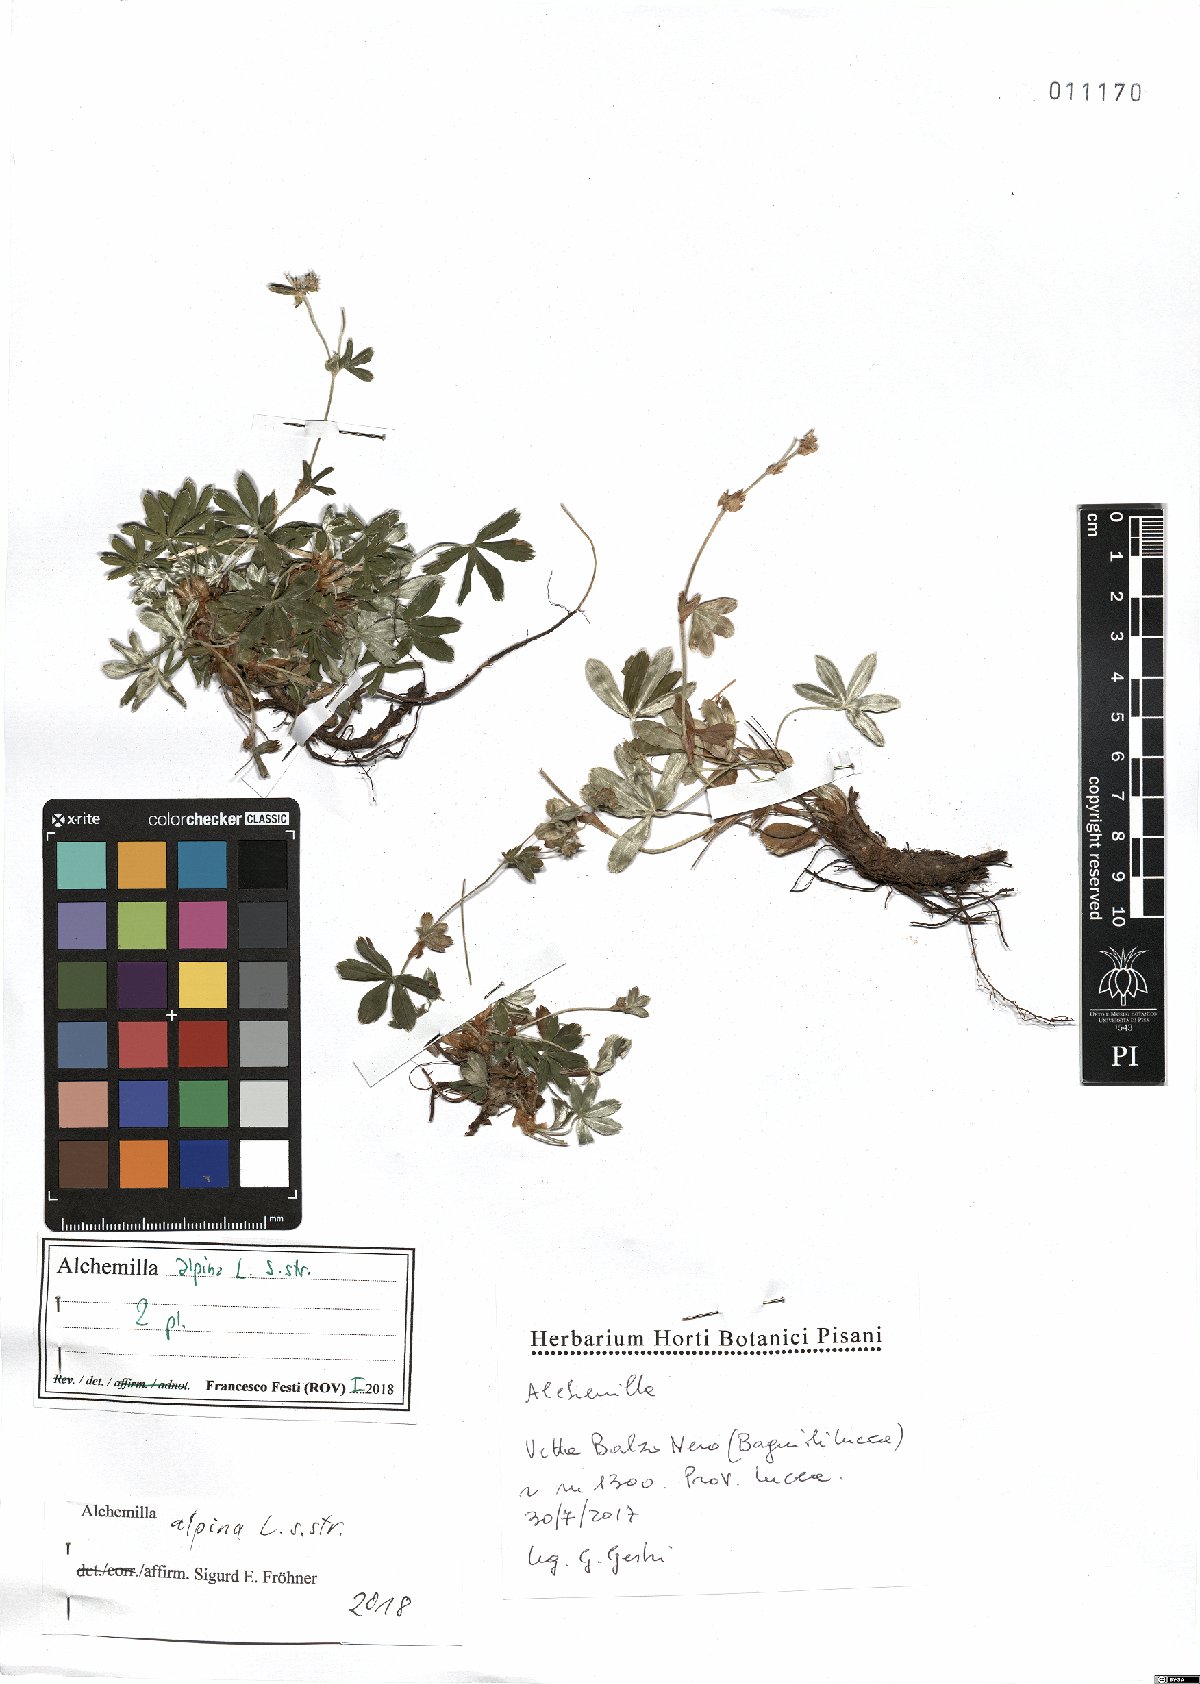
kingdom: Plantae
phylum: Tracheophyta
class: Magnoliopsida
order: Rosales
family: Rosaceae
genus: Alchemilla
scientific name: Alchemilla alpina
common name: Alpine lady's-mantle
